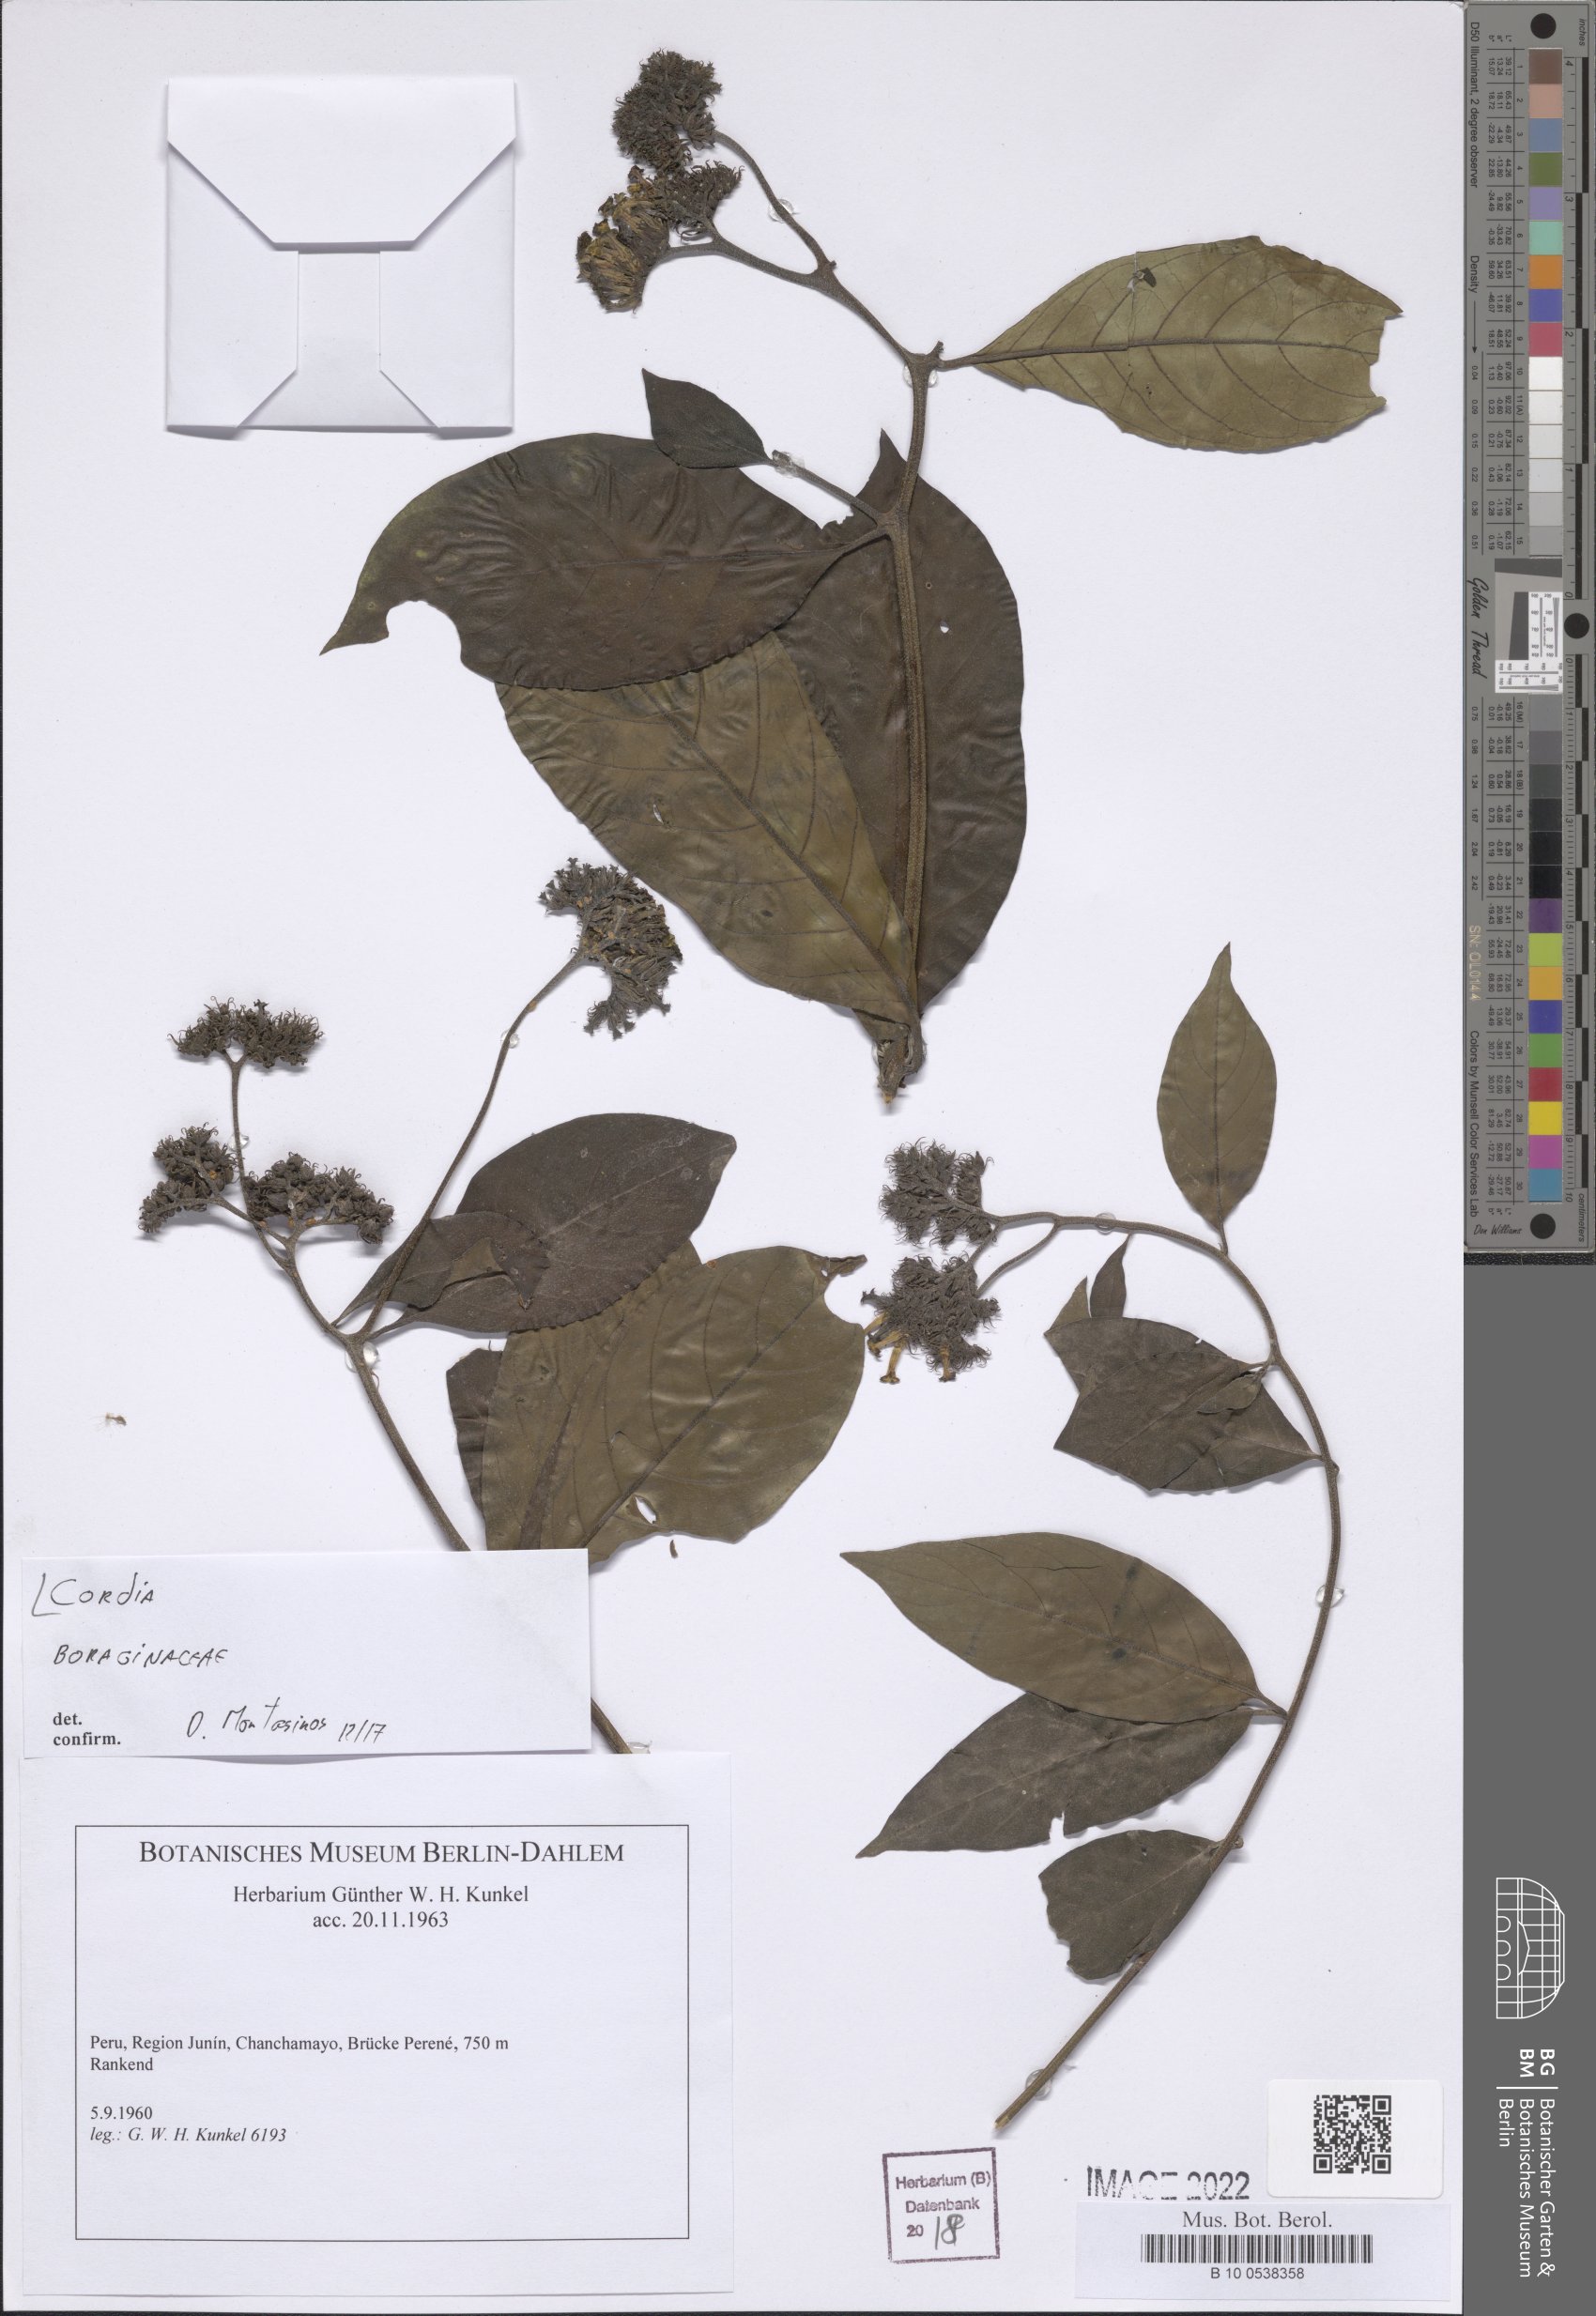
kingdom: Plantae
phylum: Tracheophyta
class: Magnoliopsida
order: Boraginales
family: Cordiaceae
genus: Cordia
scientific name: Cordia
